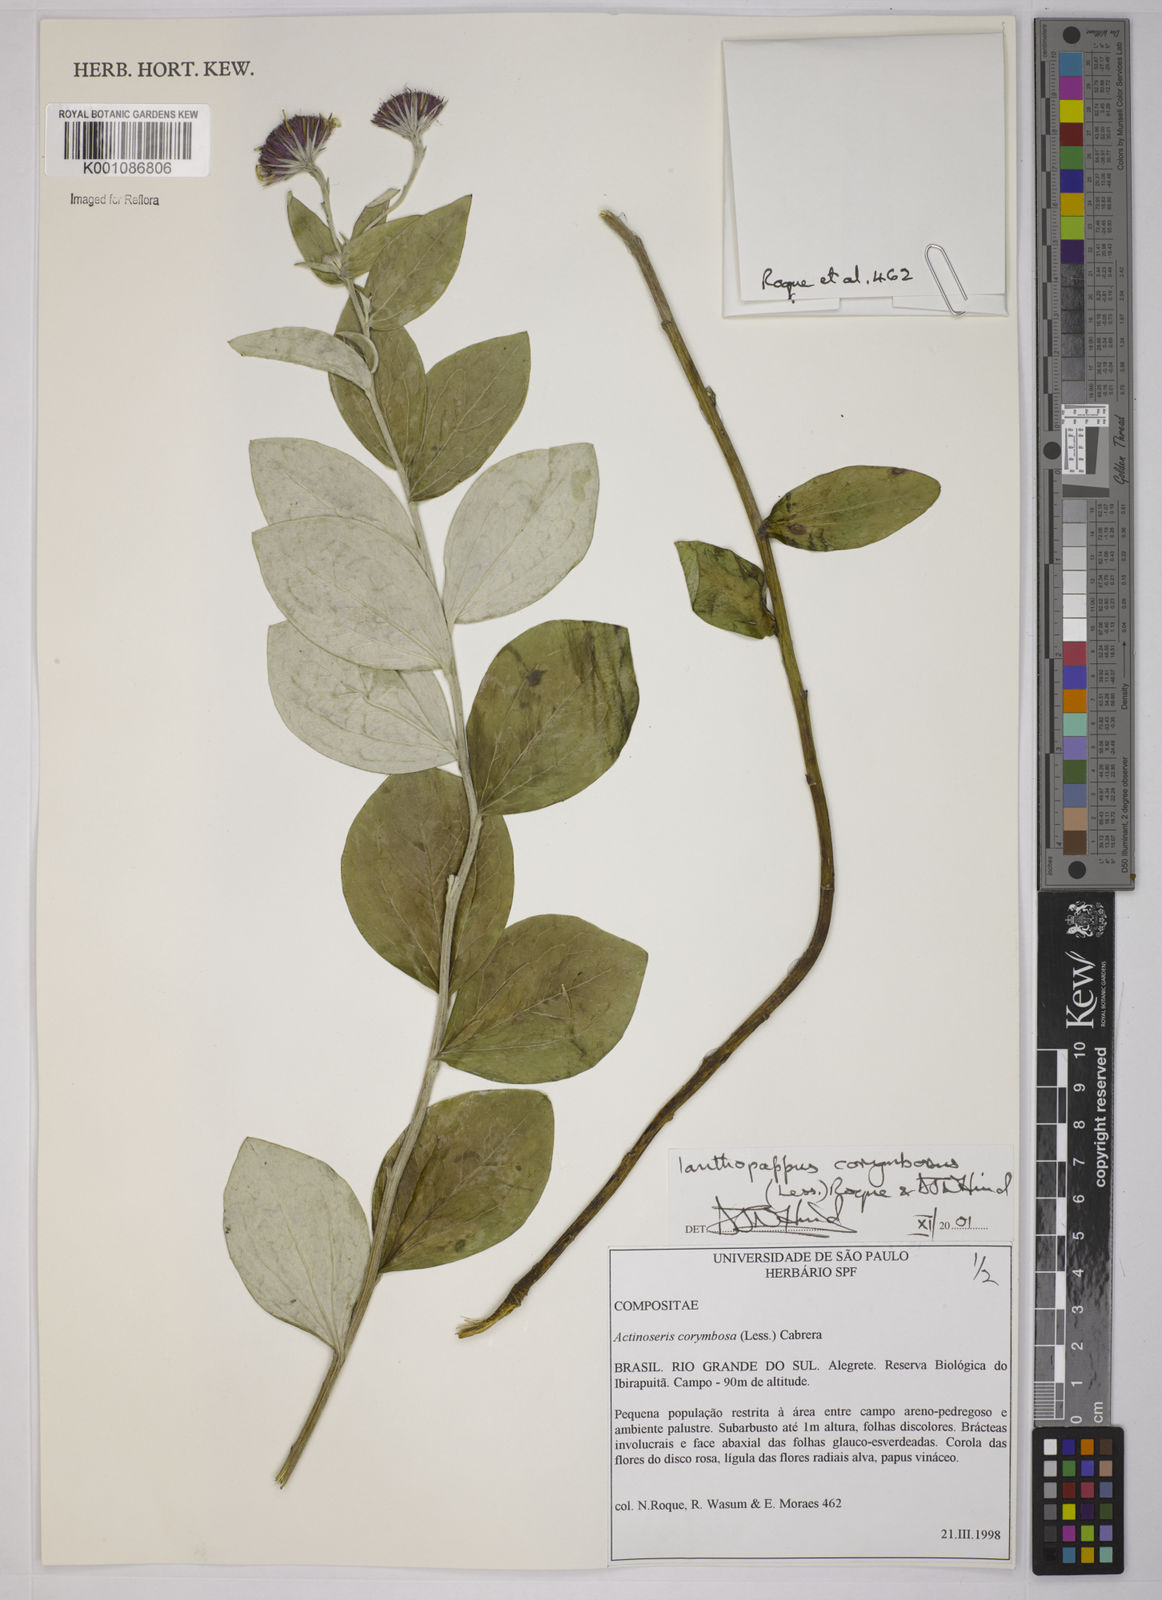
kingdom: Plantae
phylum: Tracheophyta
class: Magnoliopsida
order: Asterales
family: Asteraceae
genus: Ianthopappus
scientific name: Ianthopappus corymbosus
